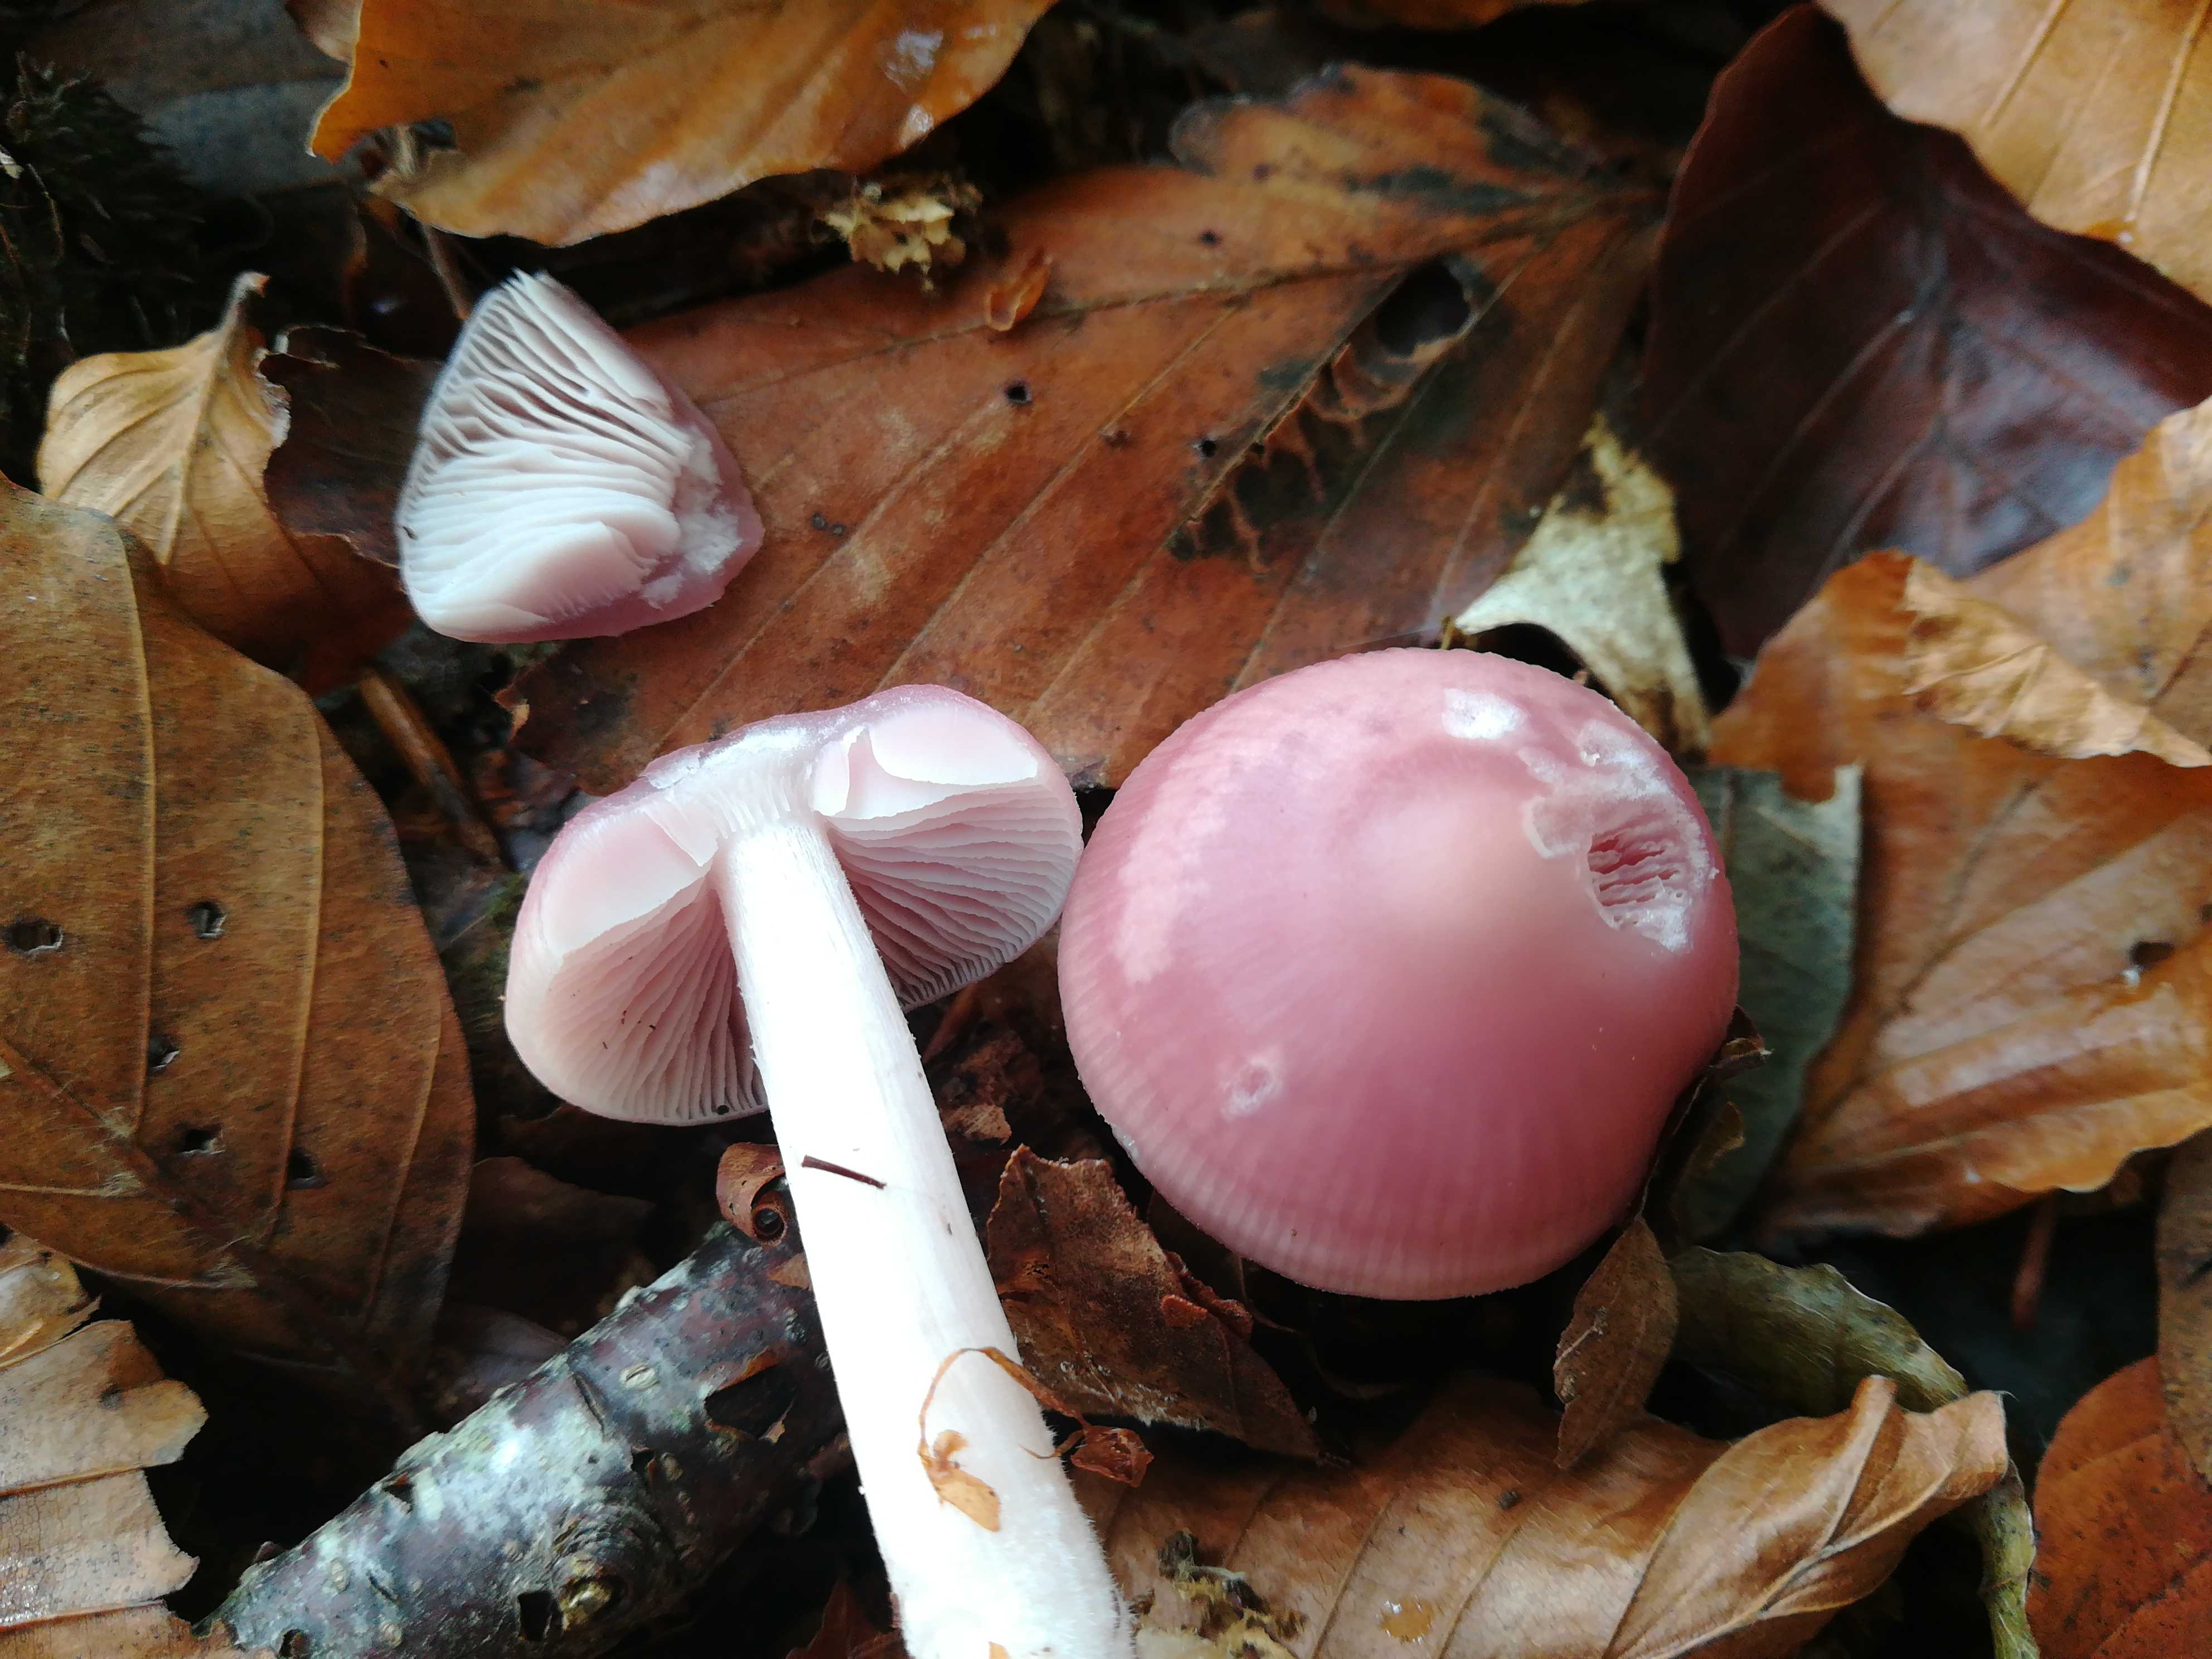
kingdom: Fungi
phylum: Basidiomycota
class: Agaricomycetes
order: Agaricales
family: Mycenaceae
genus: Mycena
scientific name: Mycena rosea
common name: rosa huesvamp
